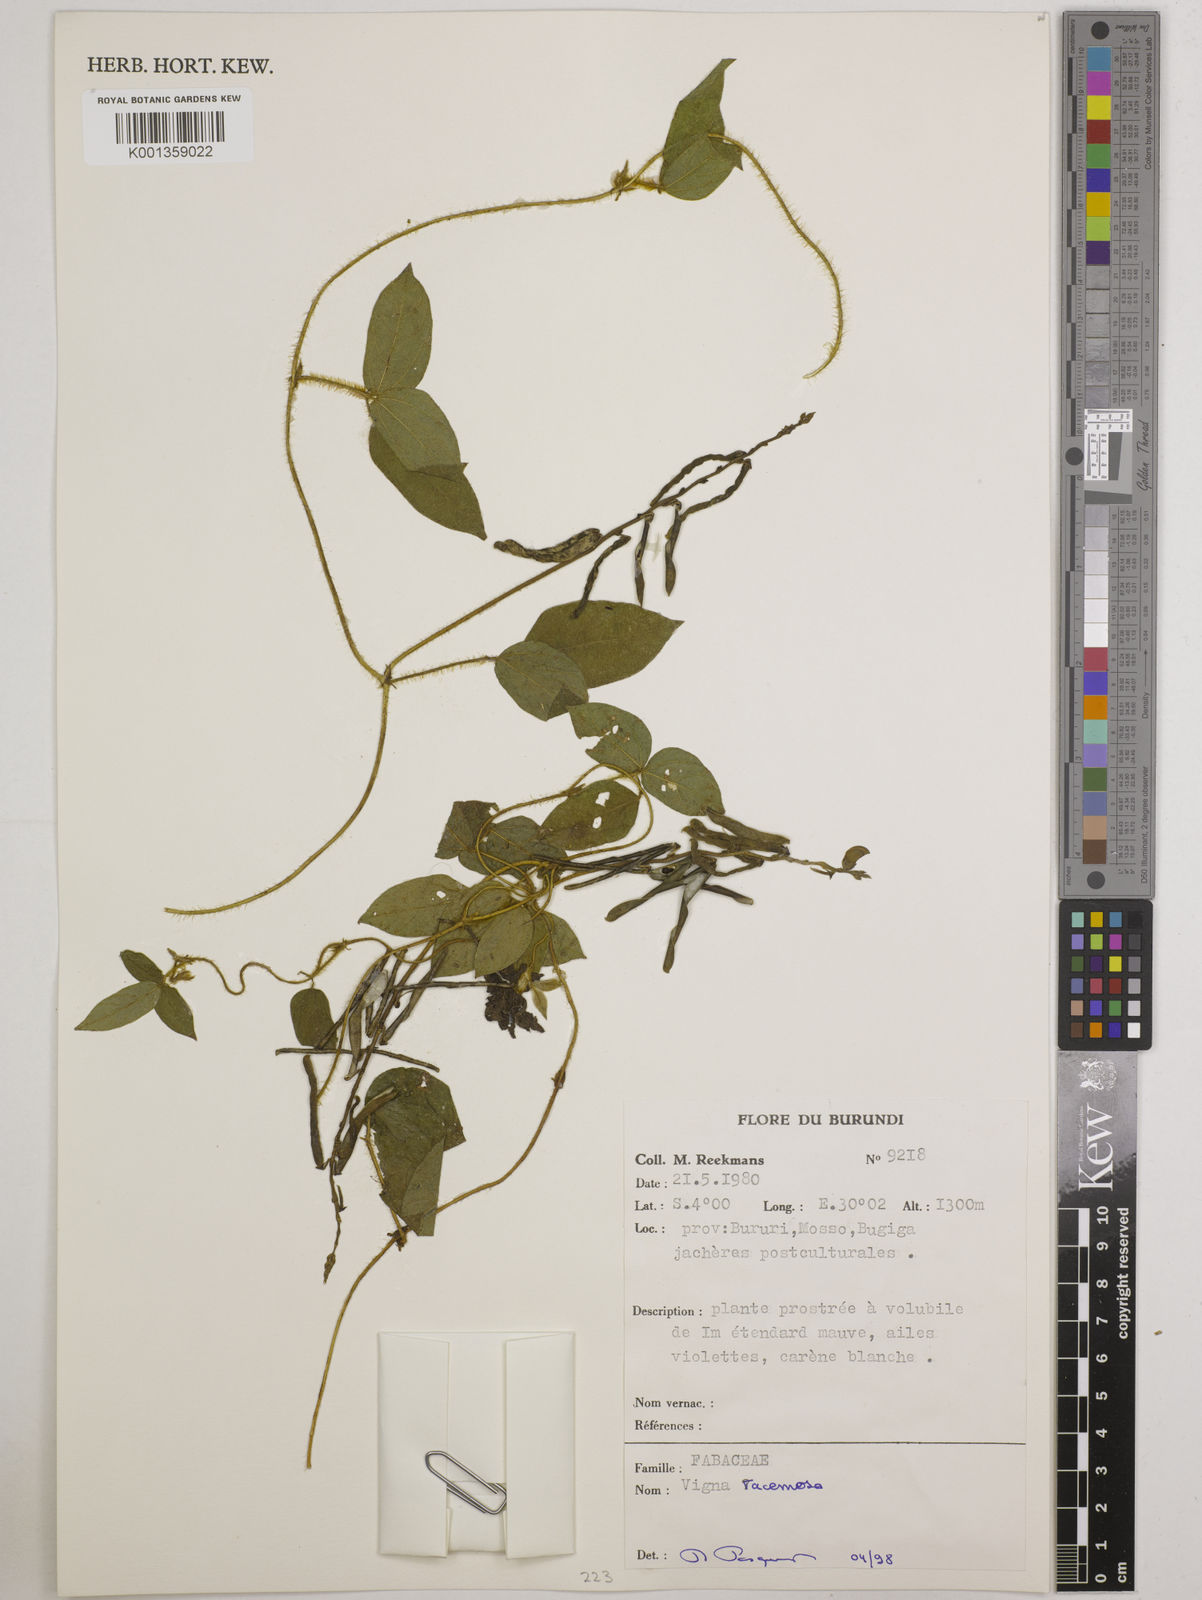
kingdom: Plantae
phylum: Tracheophyta
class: Magnoliopsida
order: Fabales
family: Fabaceae
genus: Vigna
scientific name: Vigna racemosa
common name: Beans not eaten
